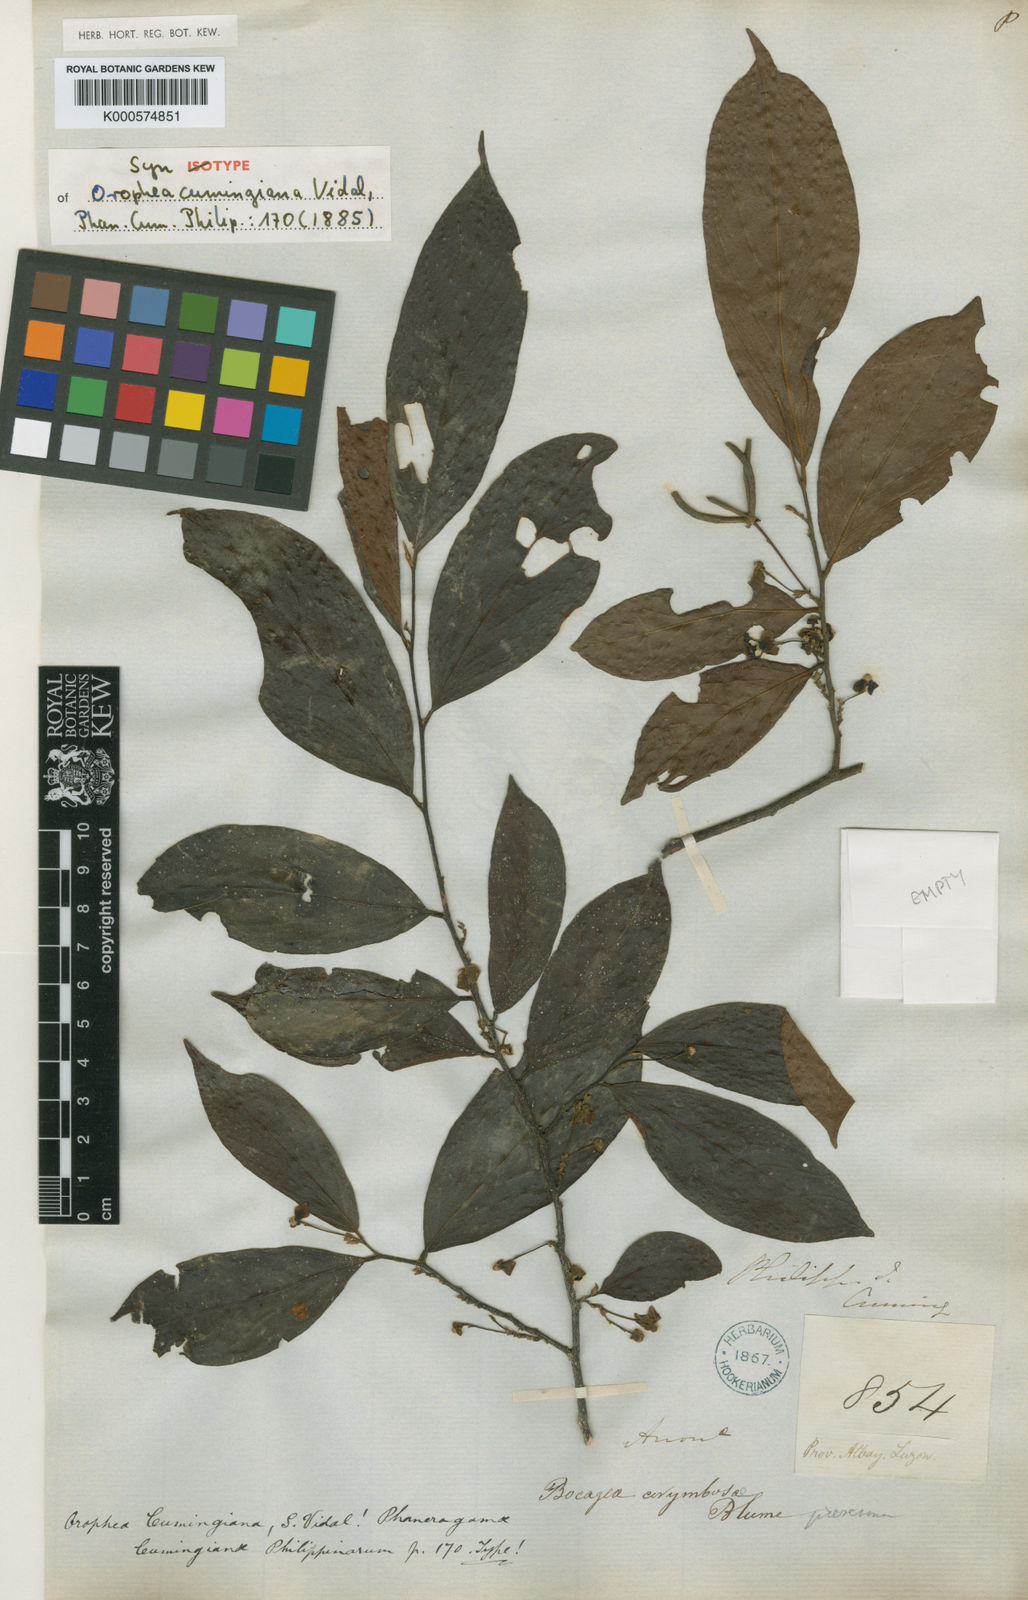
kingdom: Plantae
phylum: Tracheophyta
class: Magnoliopsida
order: Magnoliales
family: Annonaceae
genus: Orophea
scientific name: Orophea cumingiana
